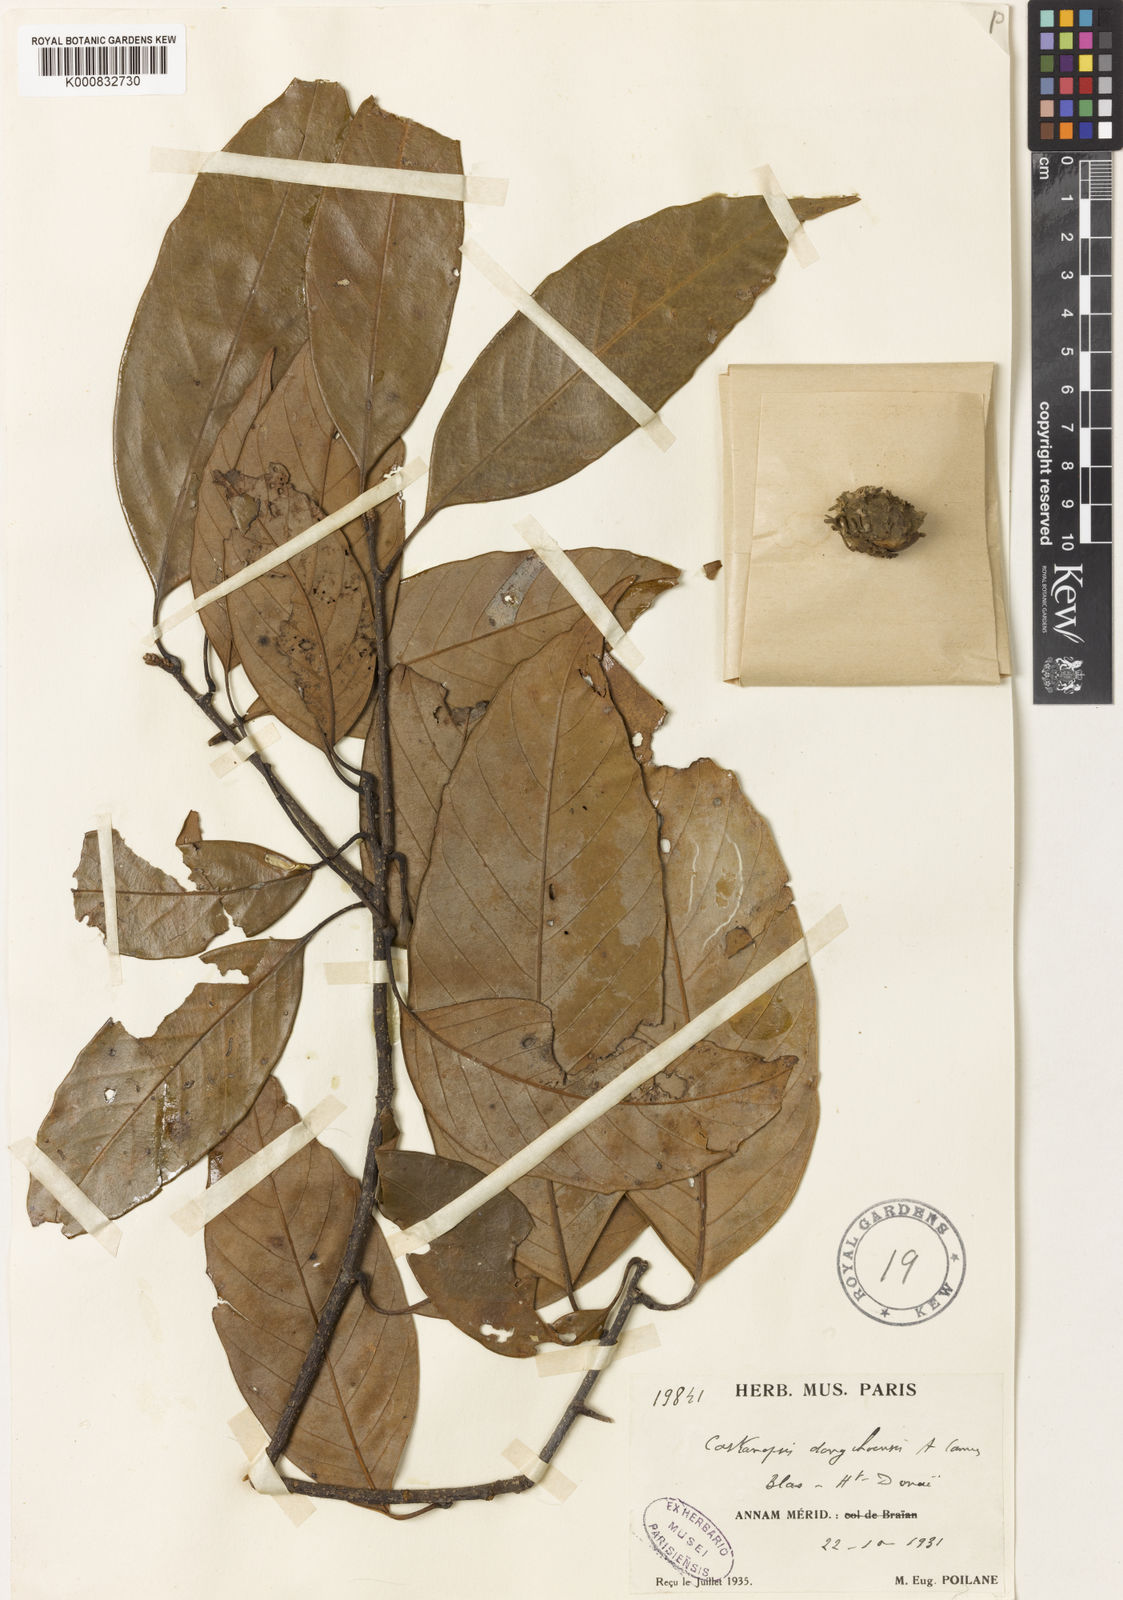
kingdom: Plantae
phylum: Tracheophyta
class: Magnoliopsida
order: Fagales
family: Fagaceae
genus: Castanopsis
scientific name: Castanopsis dongchoensis
